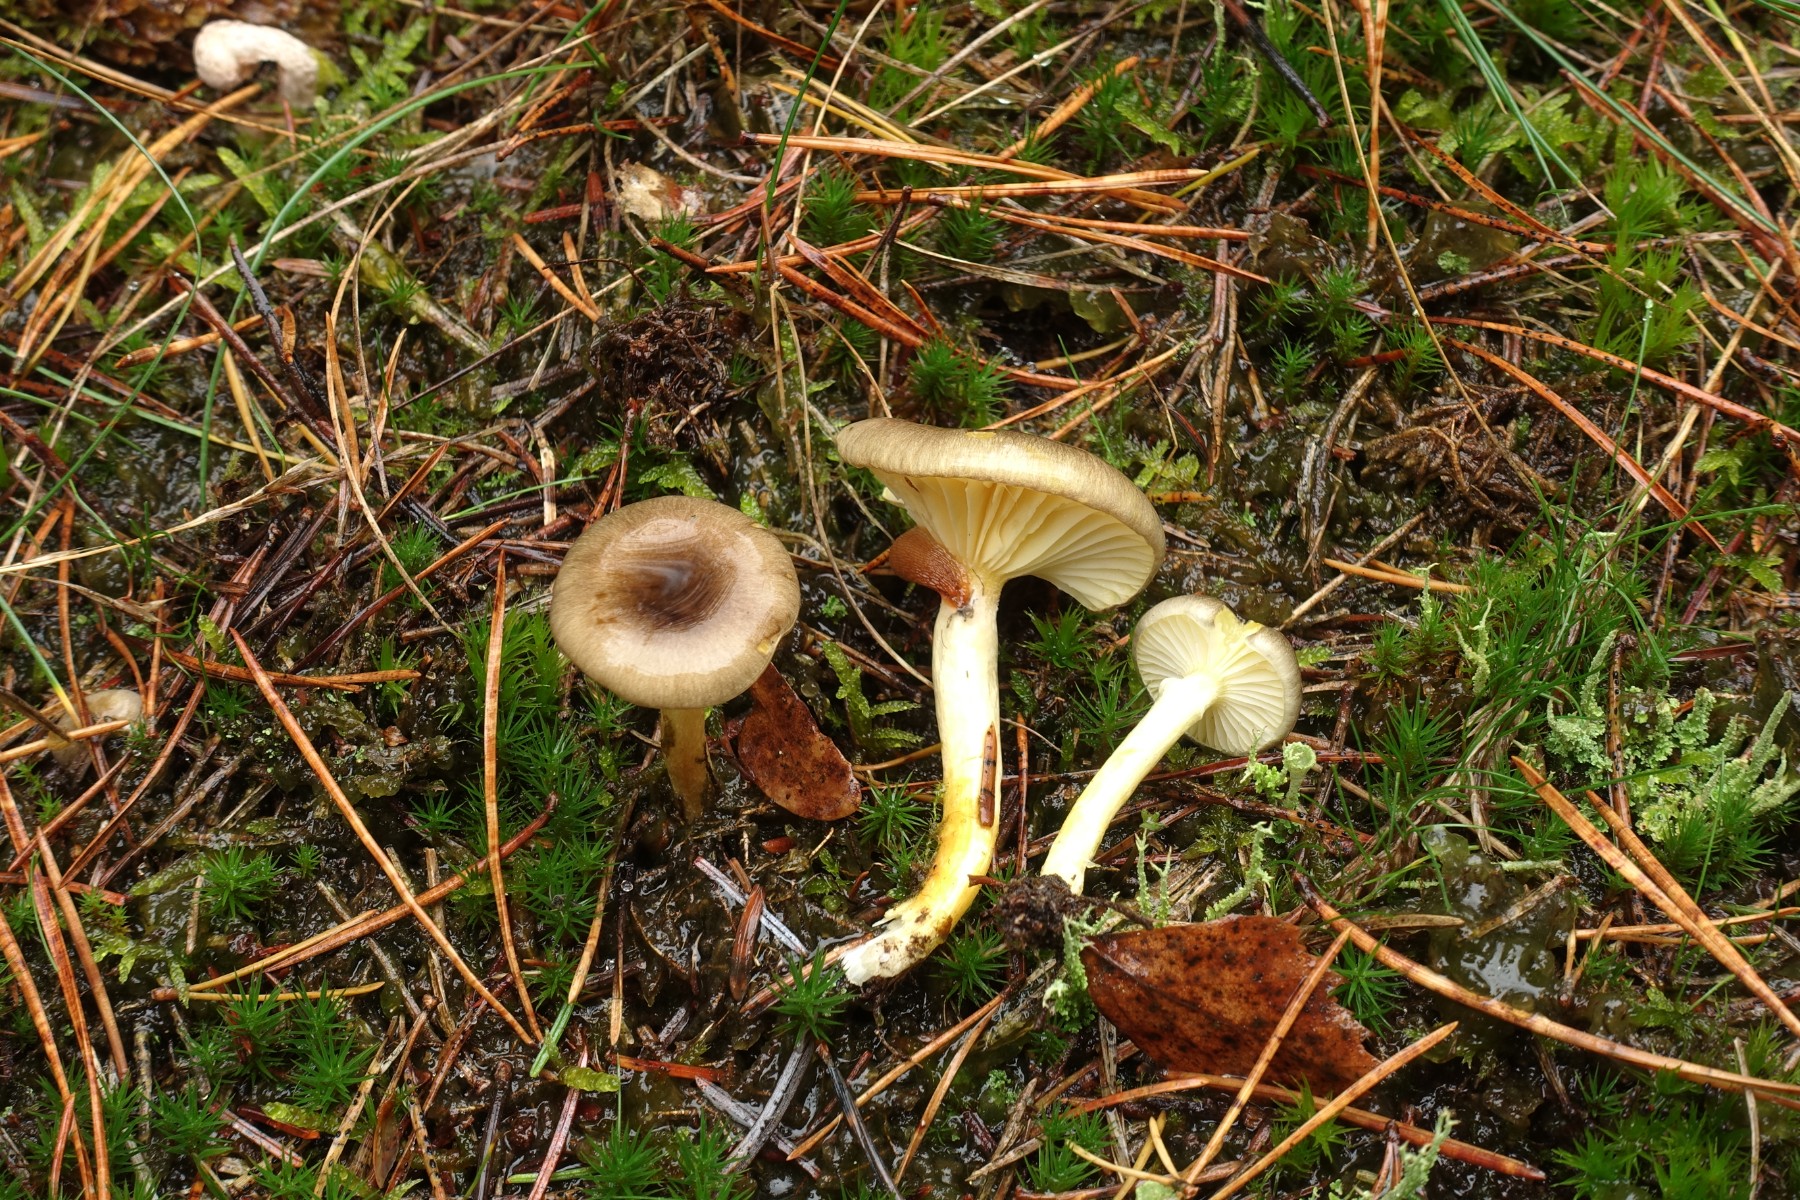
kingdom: Fungi
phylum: Basidiomycota
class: Agaricomycetes
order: Agaricales
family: Hygrophoraceae
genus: Hygrophorus
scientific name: Hygrophorus hypothejus
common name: frost-sneglehat
